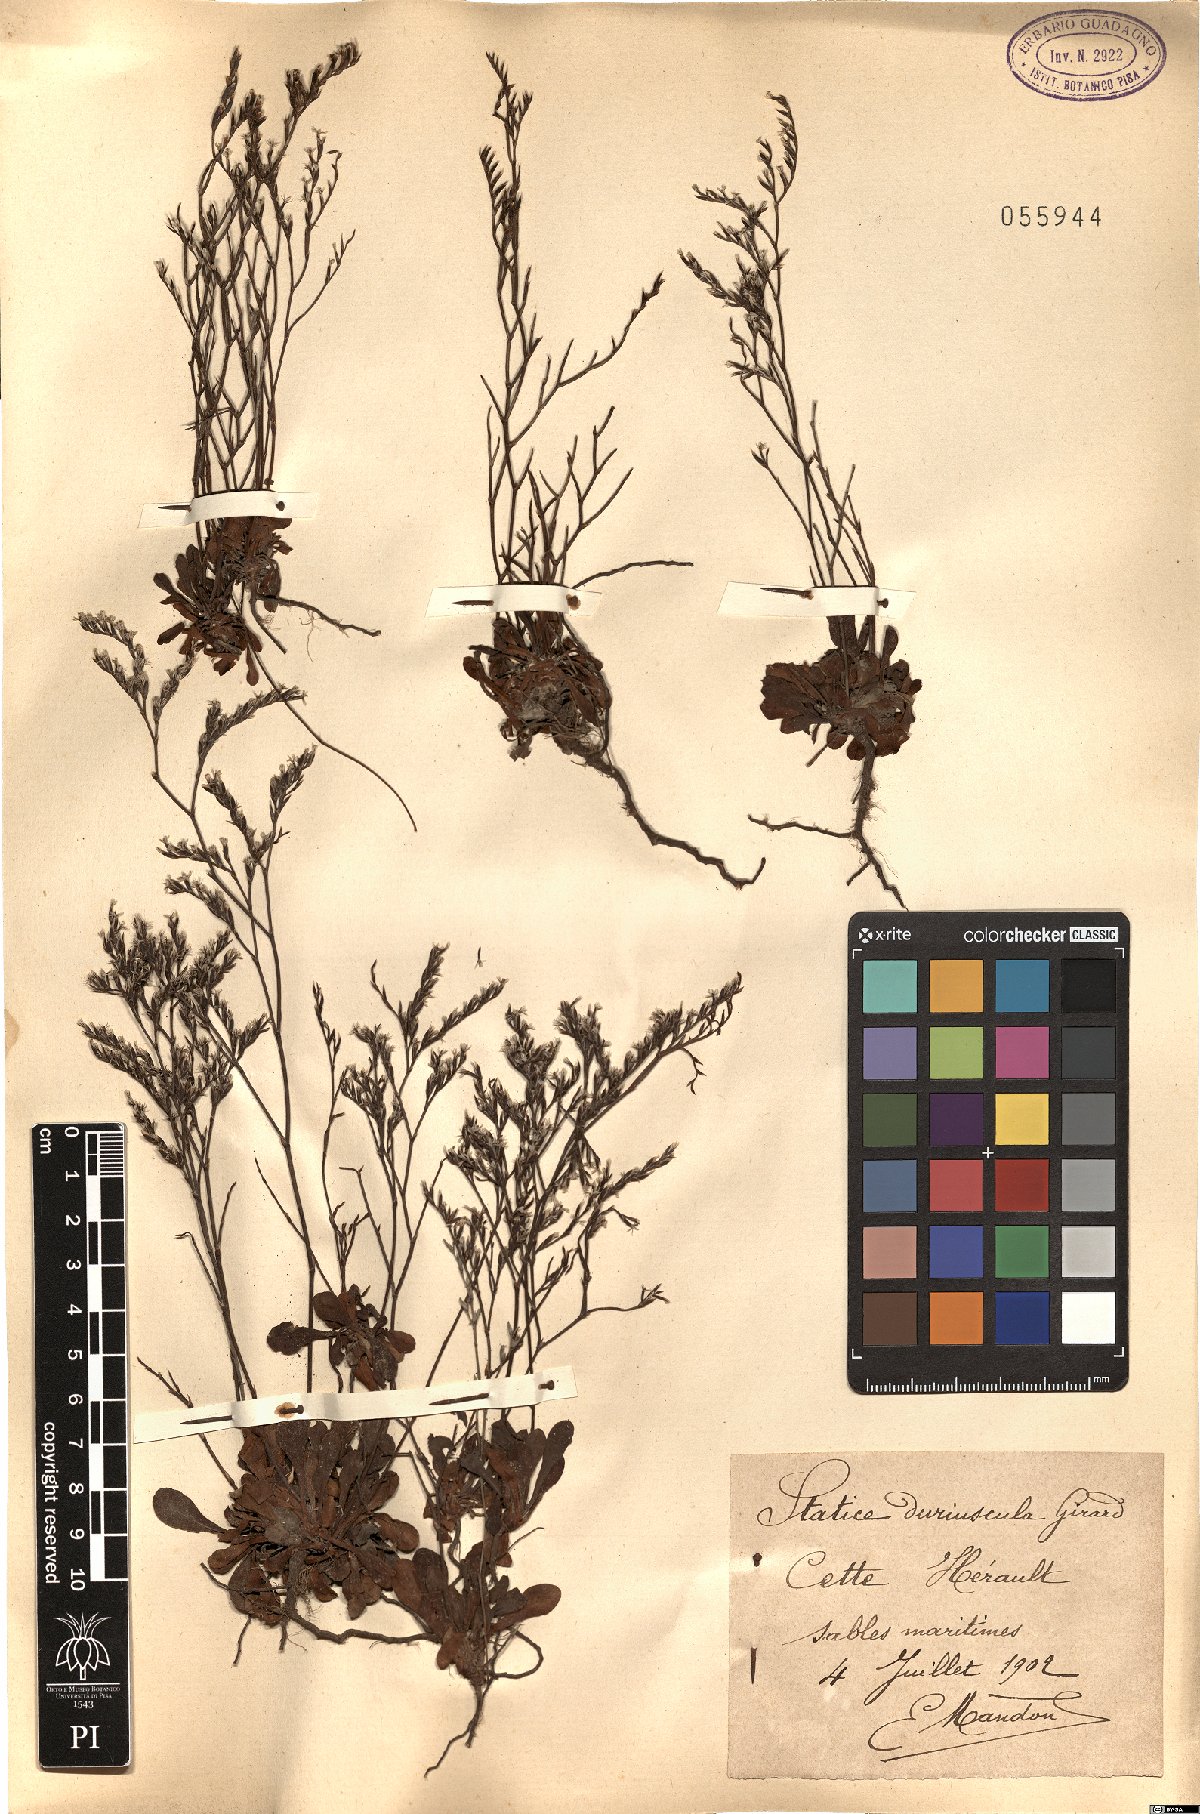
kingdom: Plantae
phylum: Tracheophyta
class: Magnoliopsida
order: Caryophyllales
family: Plumbaginaceae
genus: Limonium
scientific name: Limonium duriusculum
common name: European sea lavendar
